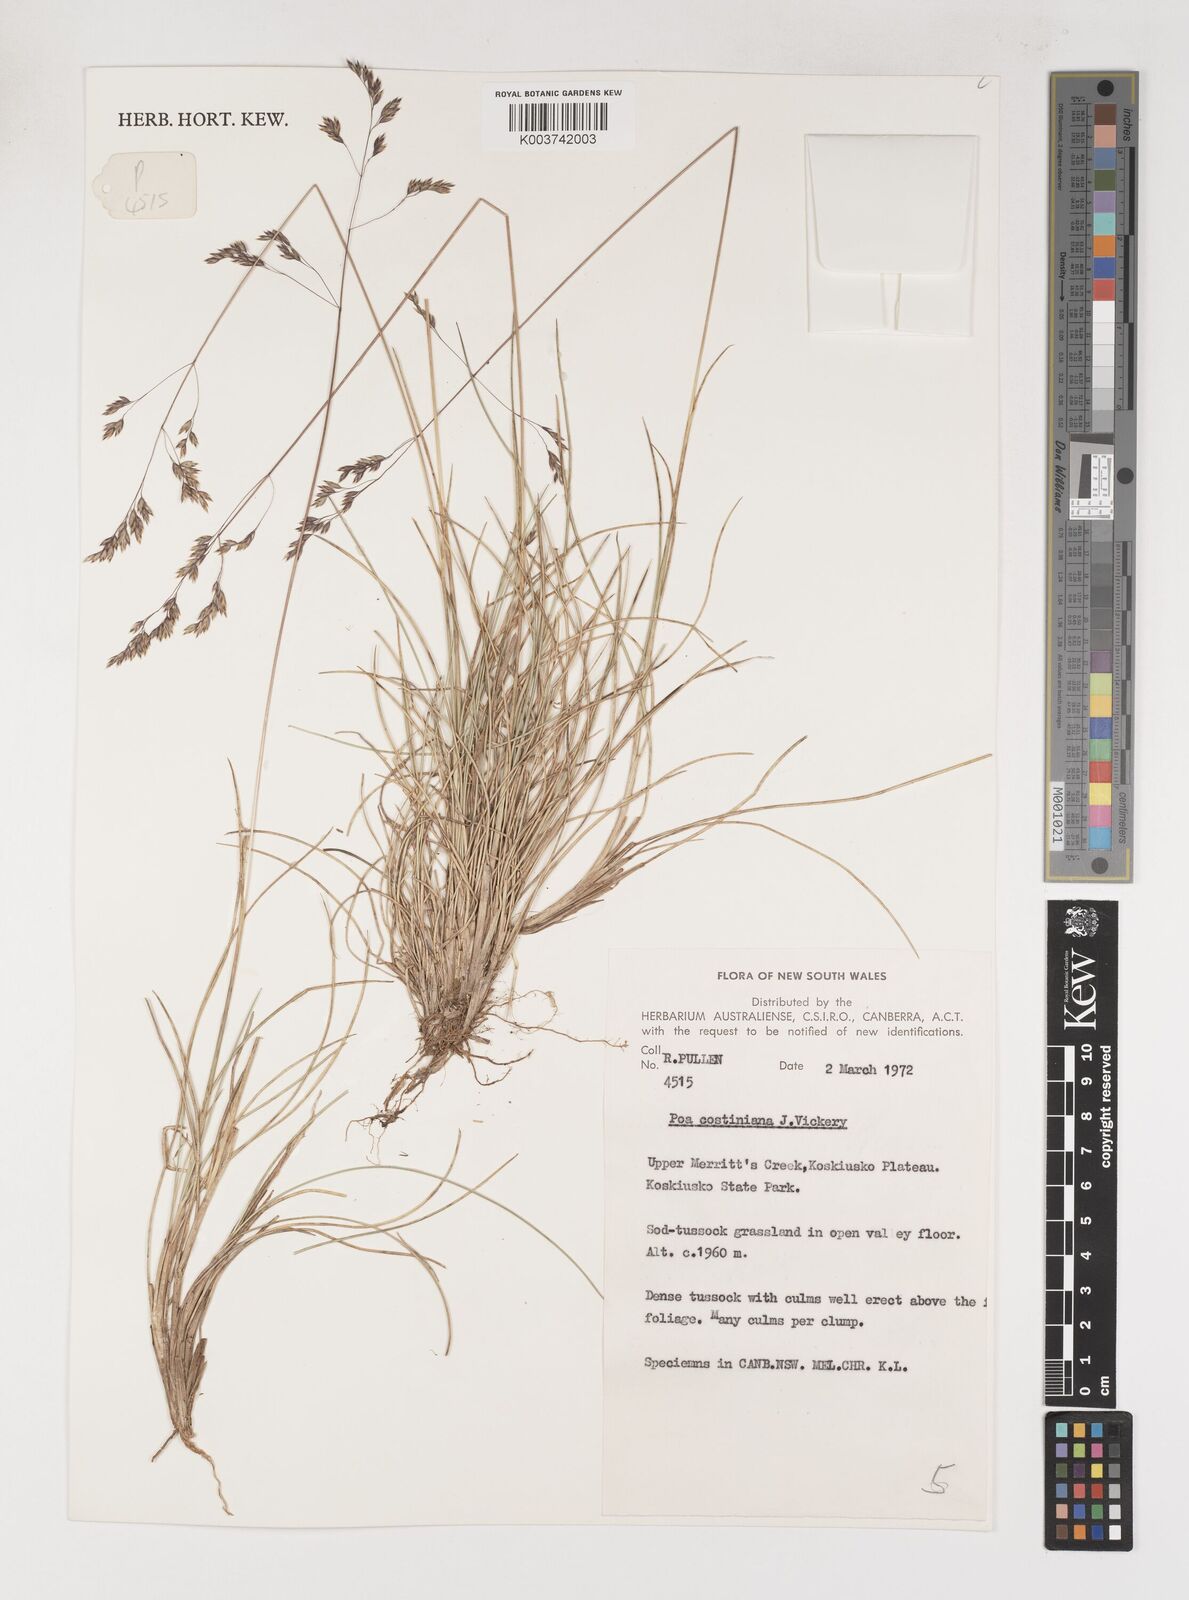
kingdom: Plantae
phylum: Tracheophyta
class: Liliopsida
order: Poales
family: Poaceae
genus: Poa
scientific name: Poa costiniana
